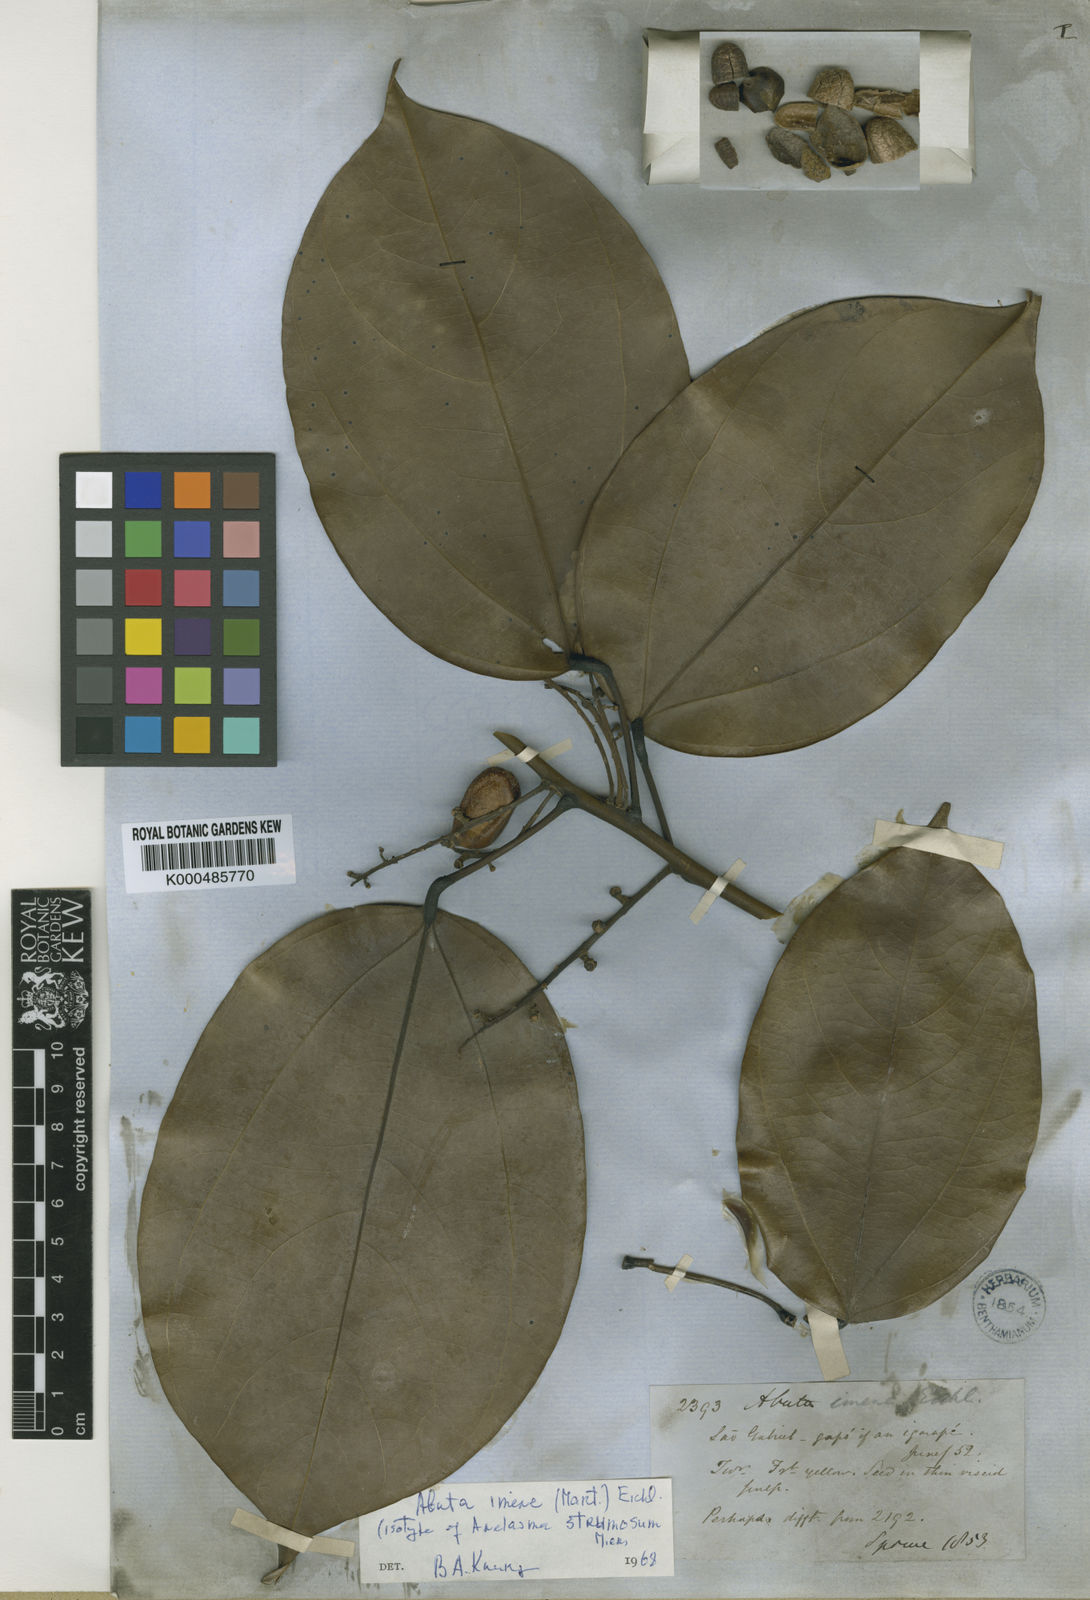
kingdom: Plantae
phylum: Tracheophyta
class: Magnoliopsida
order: Ranunculales
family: Menispermaceae
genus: Abuta
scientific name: Abuta imene
